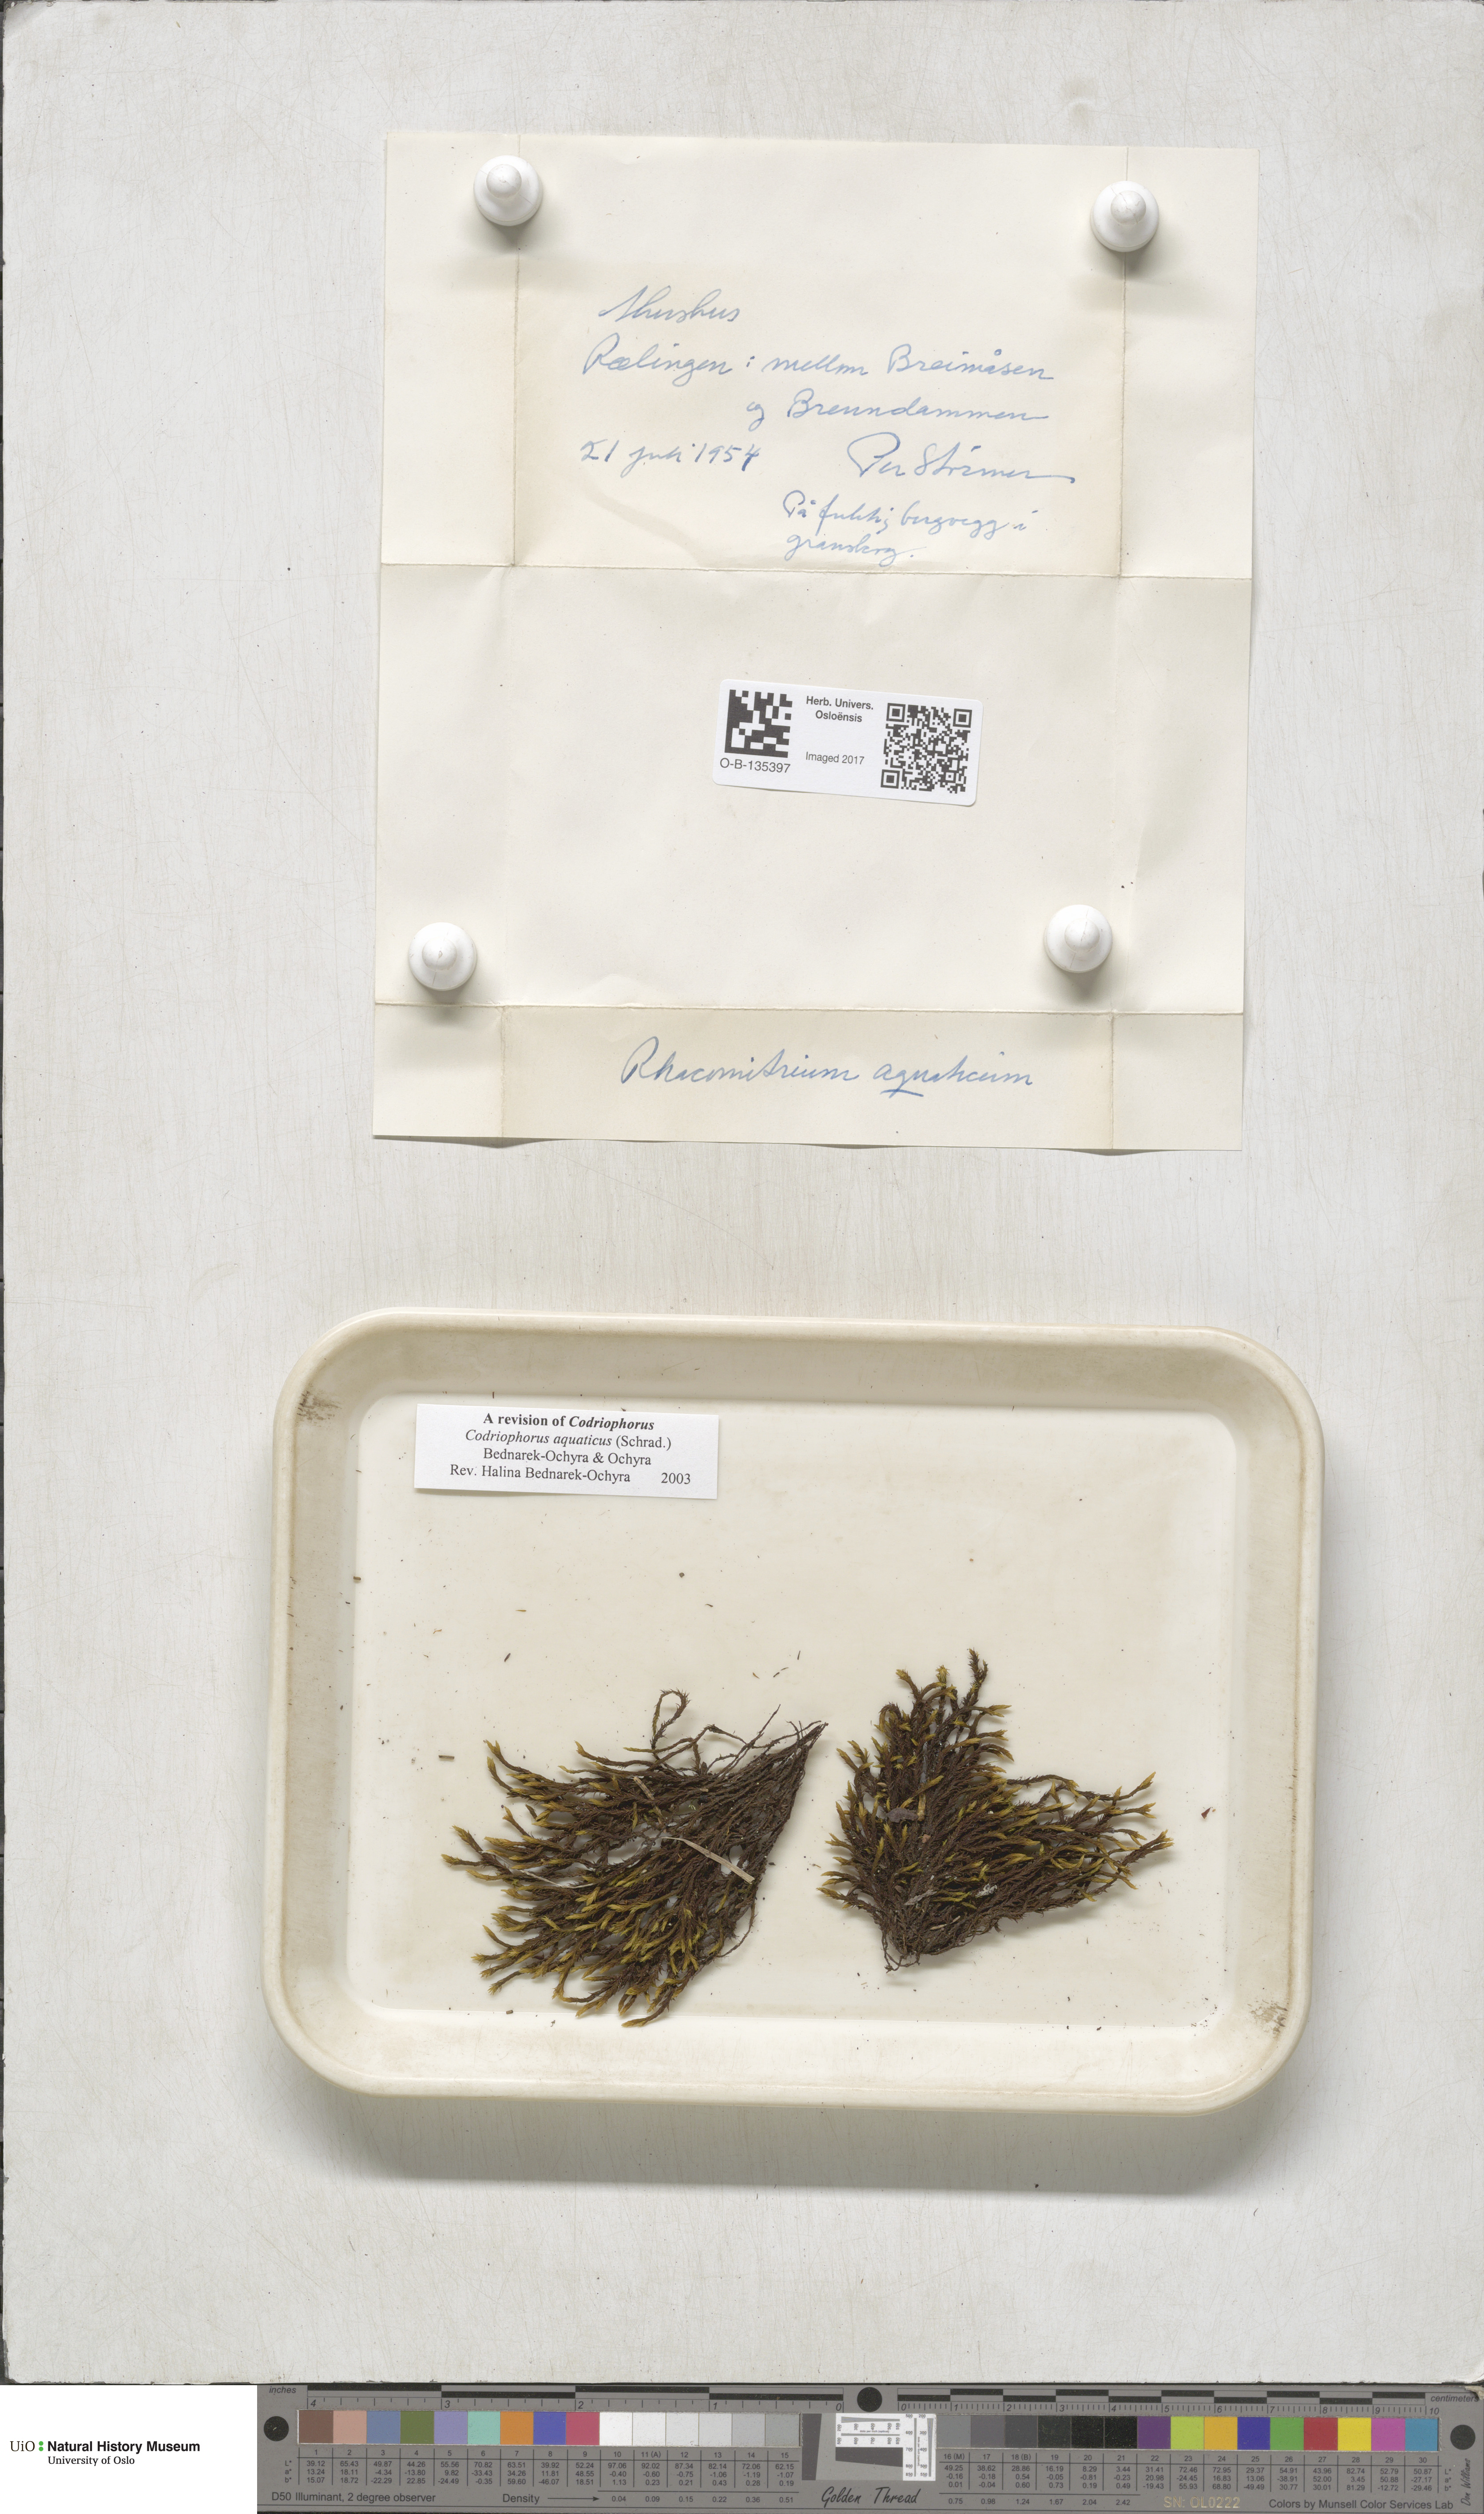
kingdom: Plantae
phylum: Bryophyta
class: Bryopsida
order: Grimmiales
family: Grimmiaceae
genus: Codriophorus
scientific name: Codriophorus aquaticus
